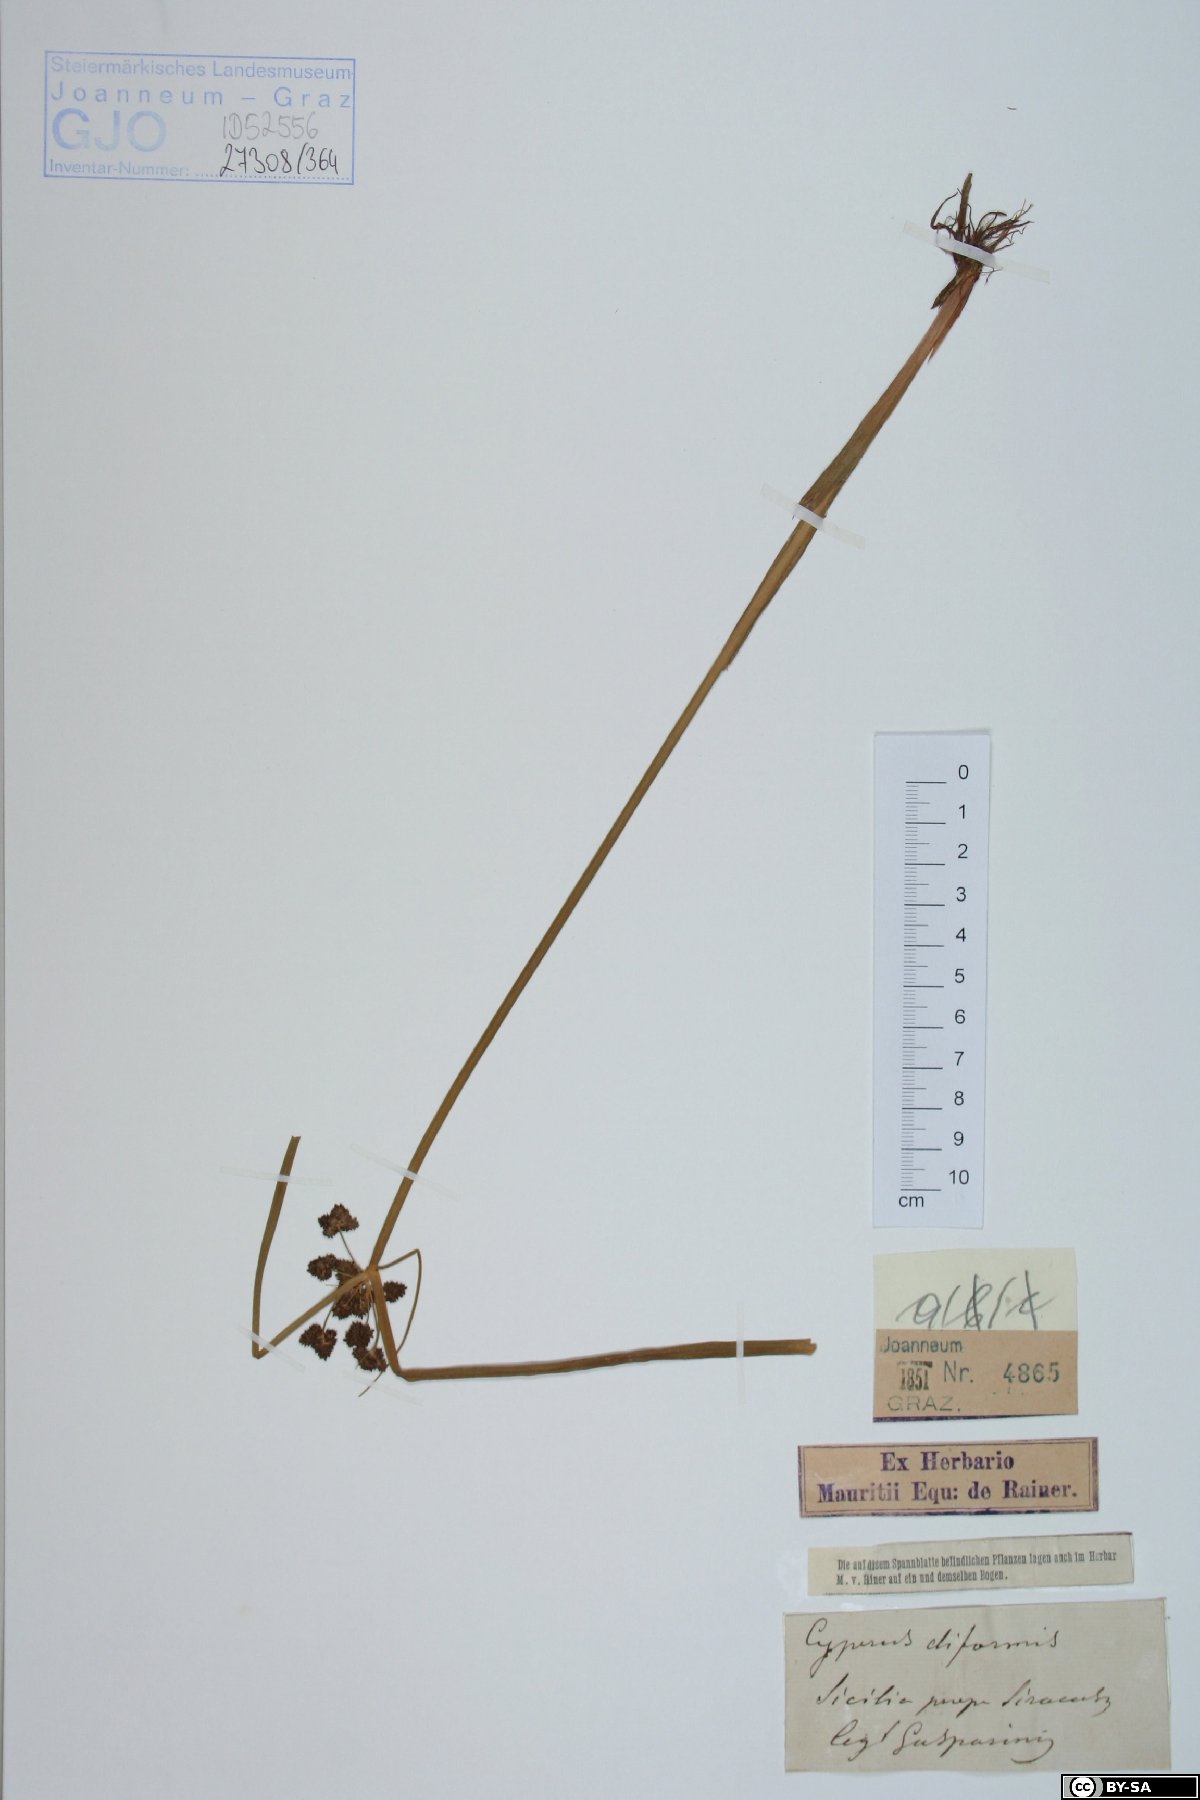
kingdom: Plantae
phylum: Tracheophyta
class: Liliopsida
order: Poales
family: Cyperaceae
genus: Cyperus
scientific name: Cyperus difformis
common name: Variable flatsedge
